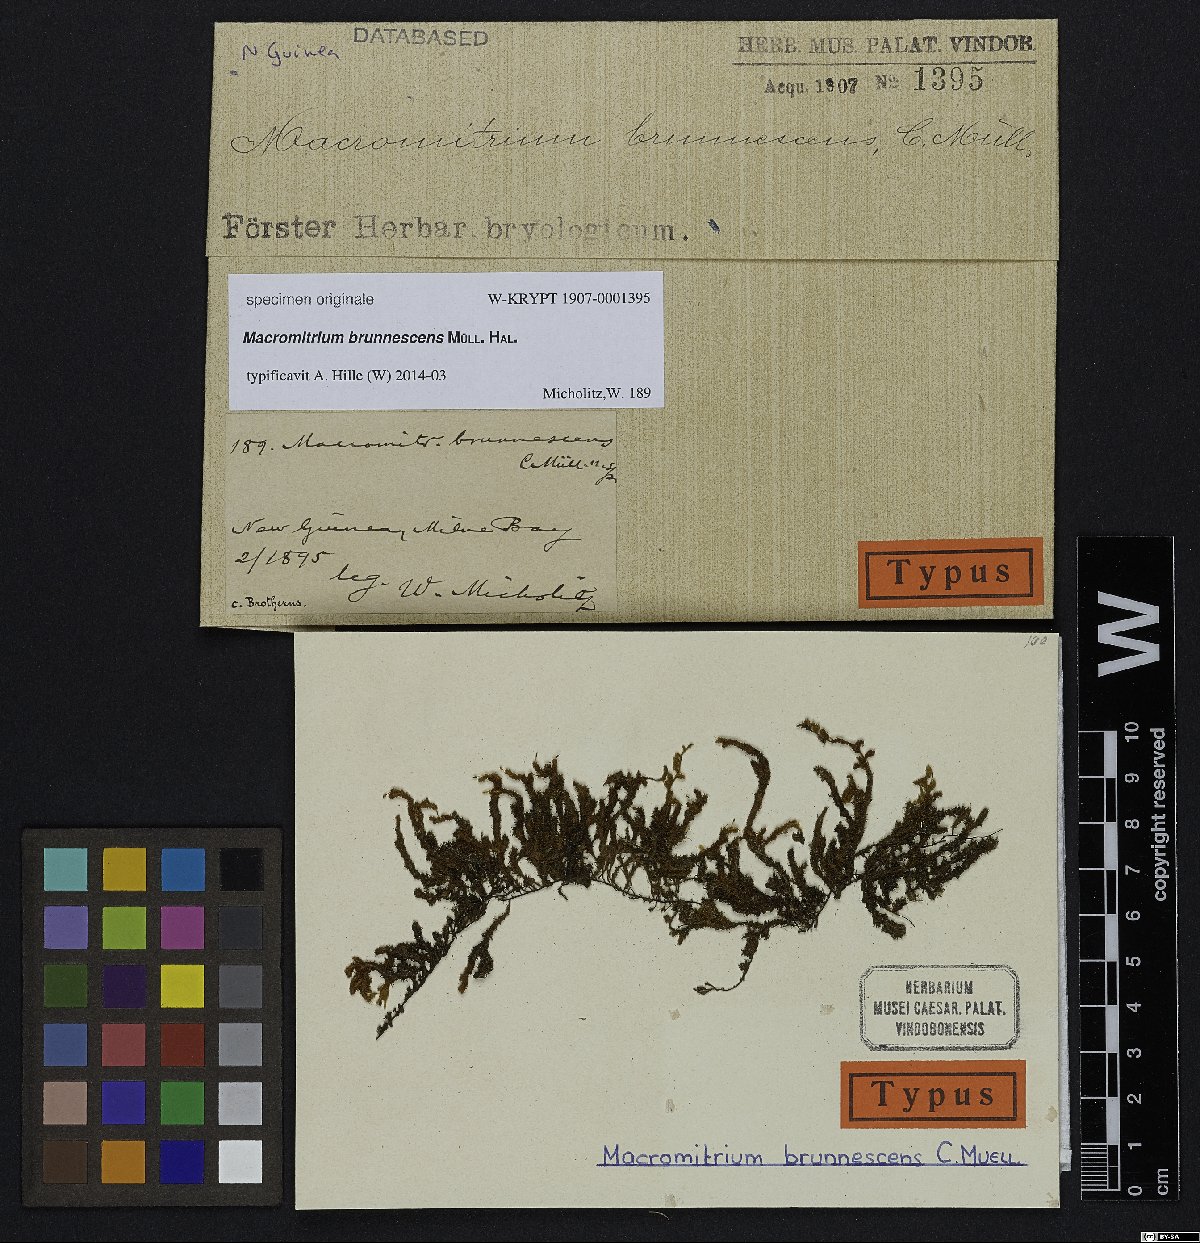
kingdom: Plantae
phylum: Bryophyta
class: Bryopsida
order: Orthotrichales
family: Orthotrichaceae
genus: Macromitrium
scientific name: Macromitrium
